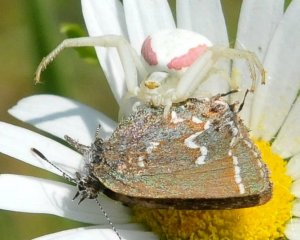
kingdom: Animalia
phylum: Arthropoda
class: Insecta
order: Lepidoptera
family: Lycaenidae
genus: Mitoura
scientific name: Mitoura gryneus
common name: Juniper Hairstreak
